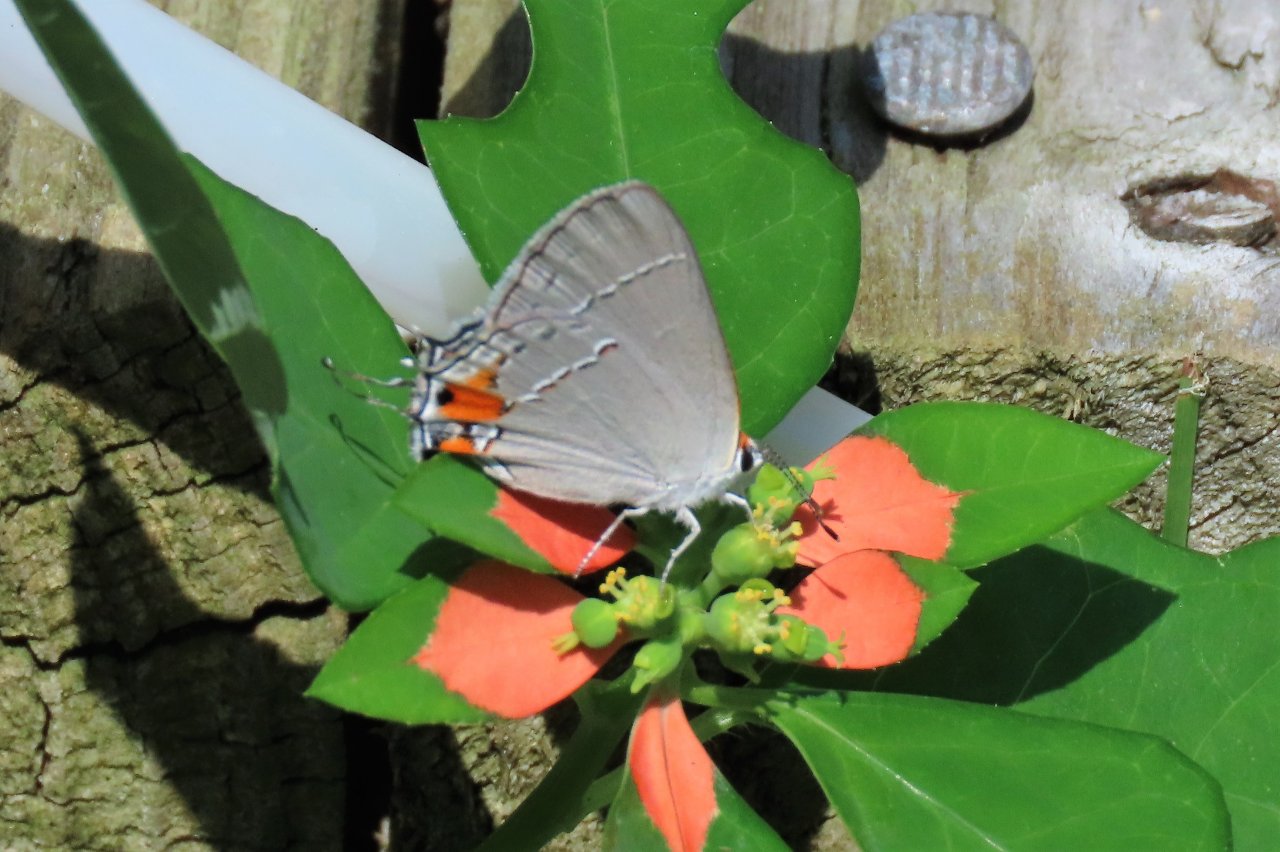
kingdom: Animalia
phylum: Arthropoda
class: Insecta
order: Lepidoptera
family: Lycaenidae
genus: Strymon
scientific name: Strymon melinus
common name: Gray Hairstreak
